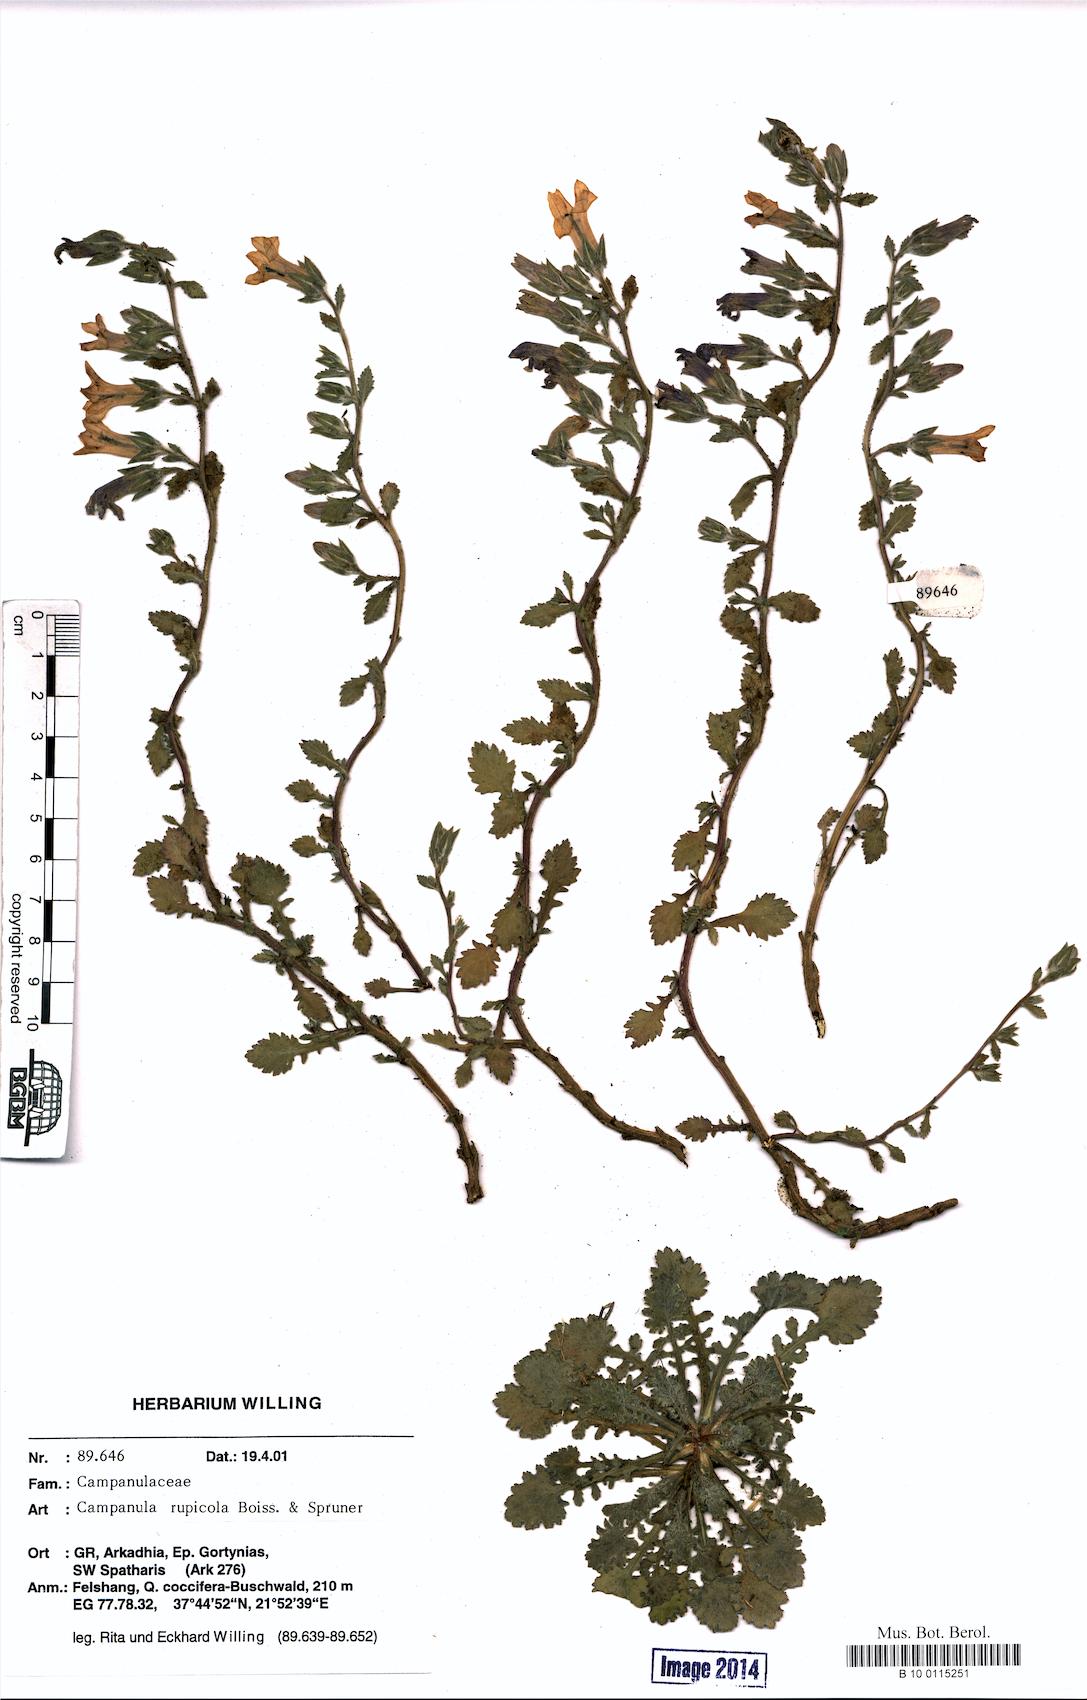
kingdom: Plantae
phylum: Tracheophyta
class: Magnoliopsida
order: Asterales
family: Campanulaceae
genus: Campanula
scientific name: Campanula rupicola
